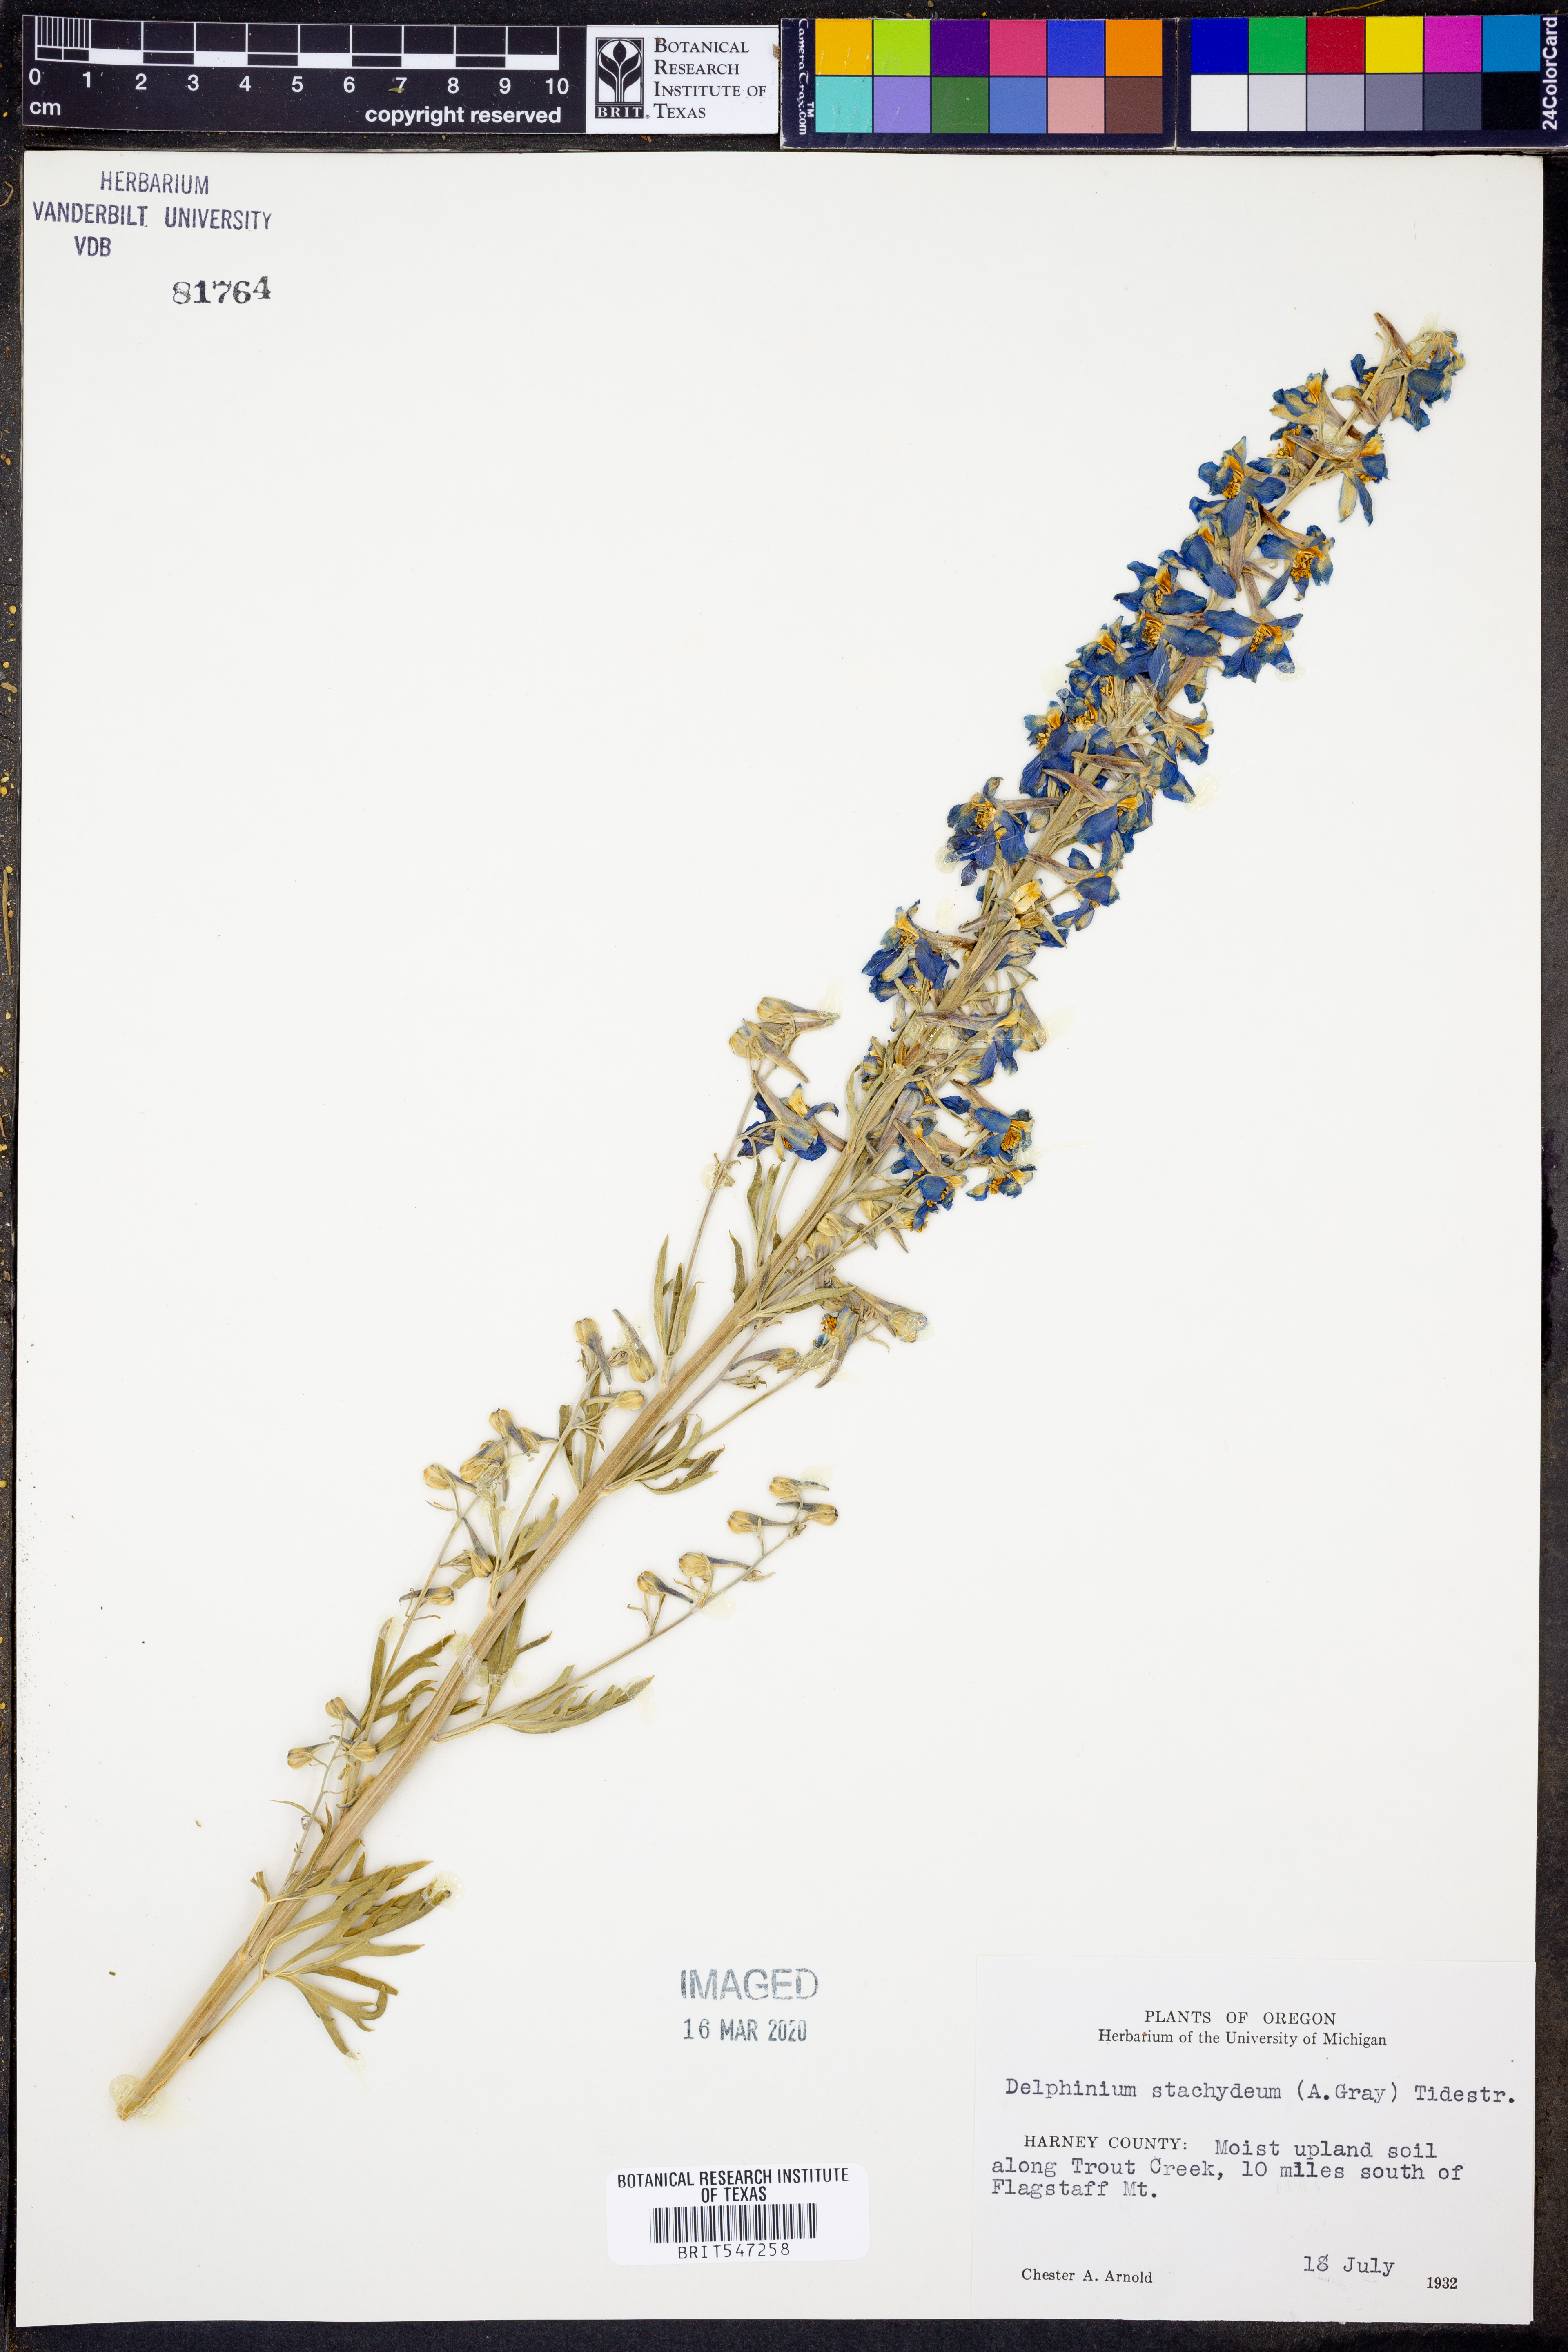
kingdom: Plantae
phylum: Tracheophyta
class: Magnoliopsida
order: Ranunculales
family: Ranunculaceae
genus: Delphinium
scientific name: Delphinium stachydeum
